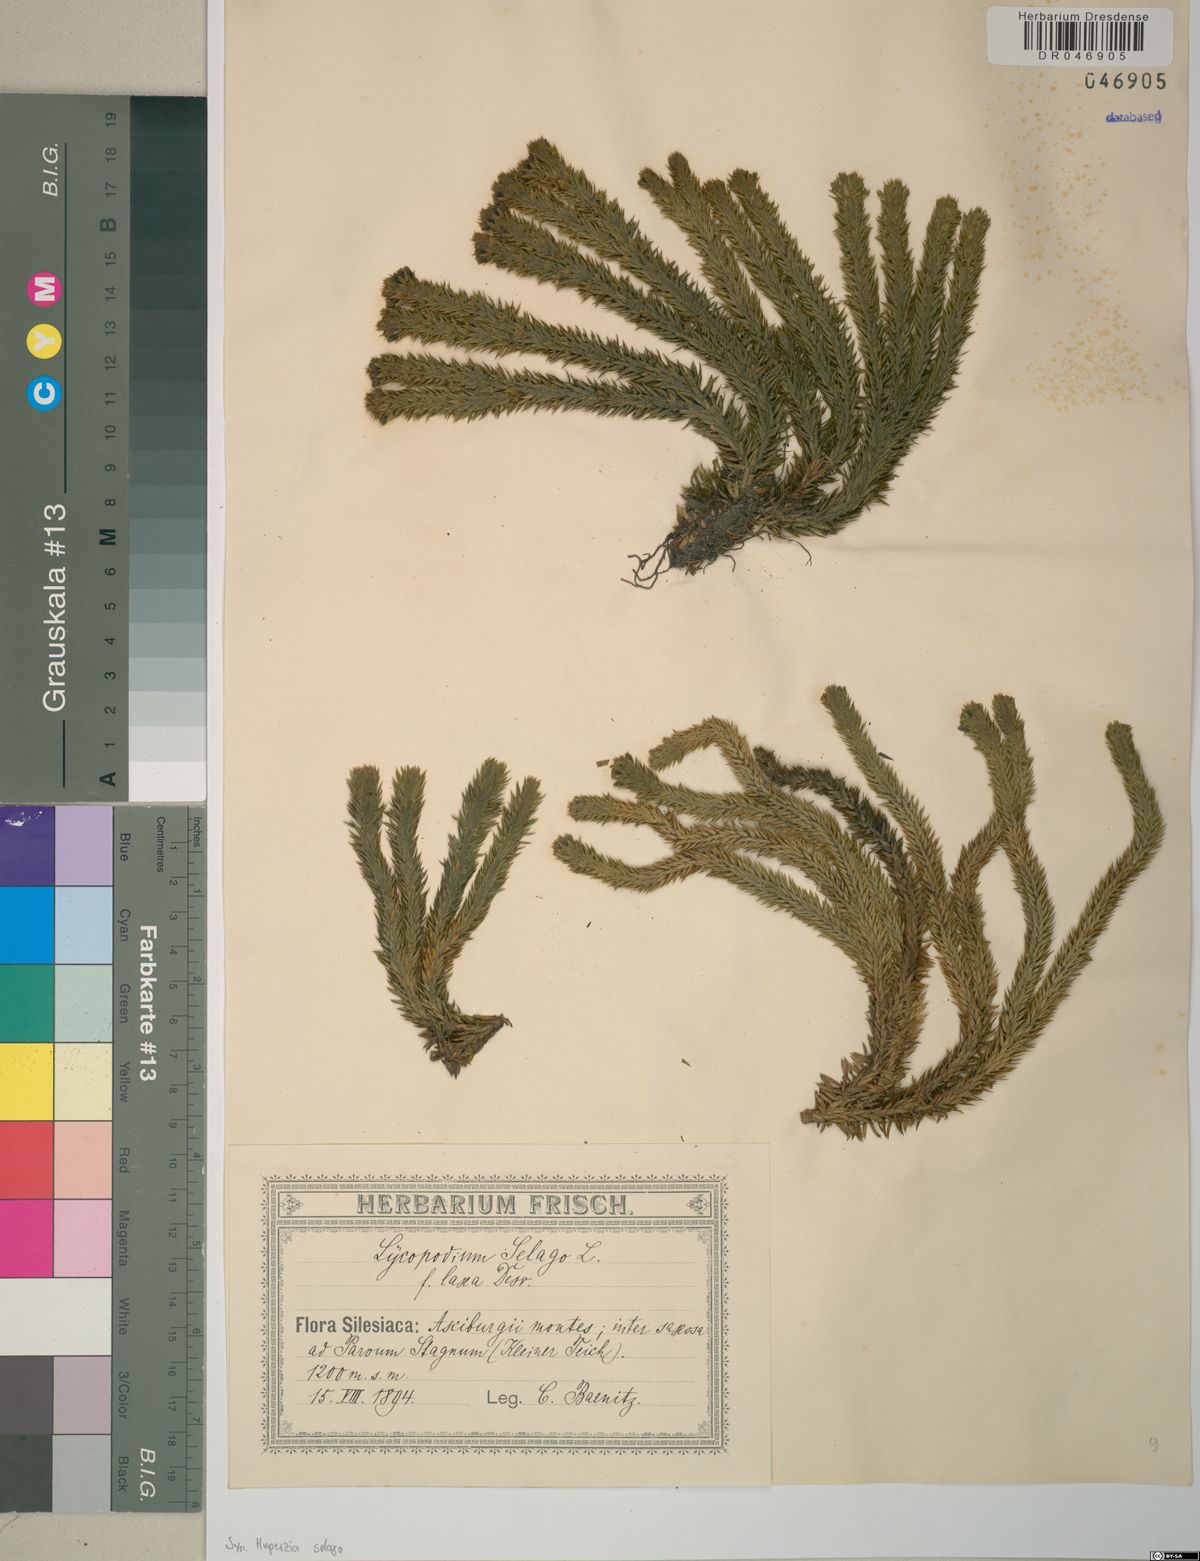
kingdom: Plantae
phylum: Tracheophyta
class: Lycopodiopsida
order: Lycopodiales
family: Lycopodiaceae
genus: Huperzia
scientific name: Huperzia selago
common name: Northern firmoss
